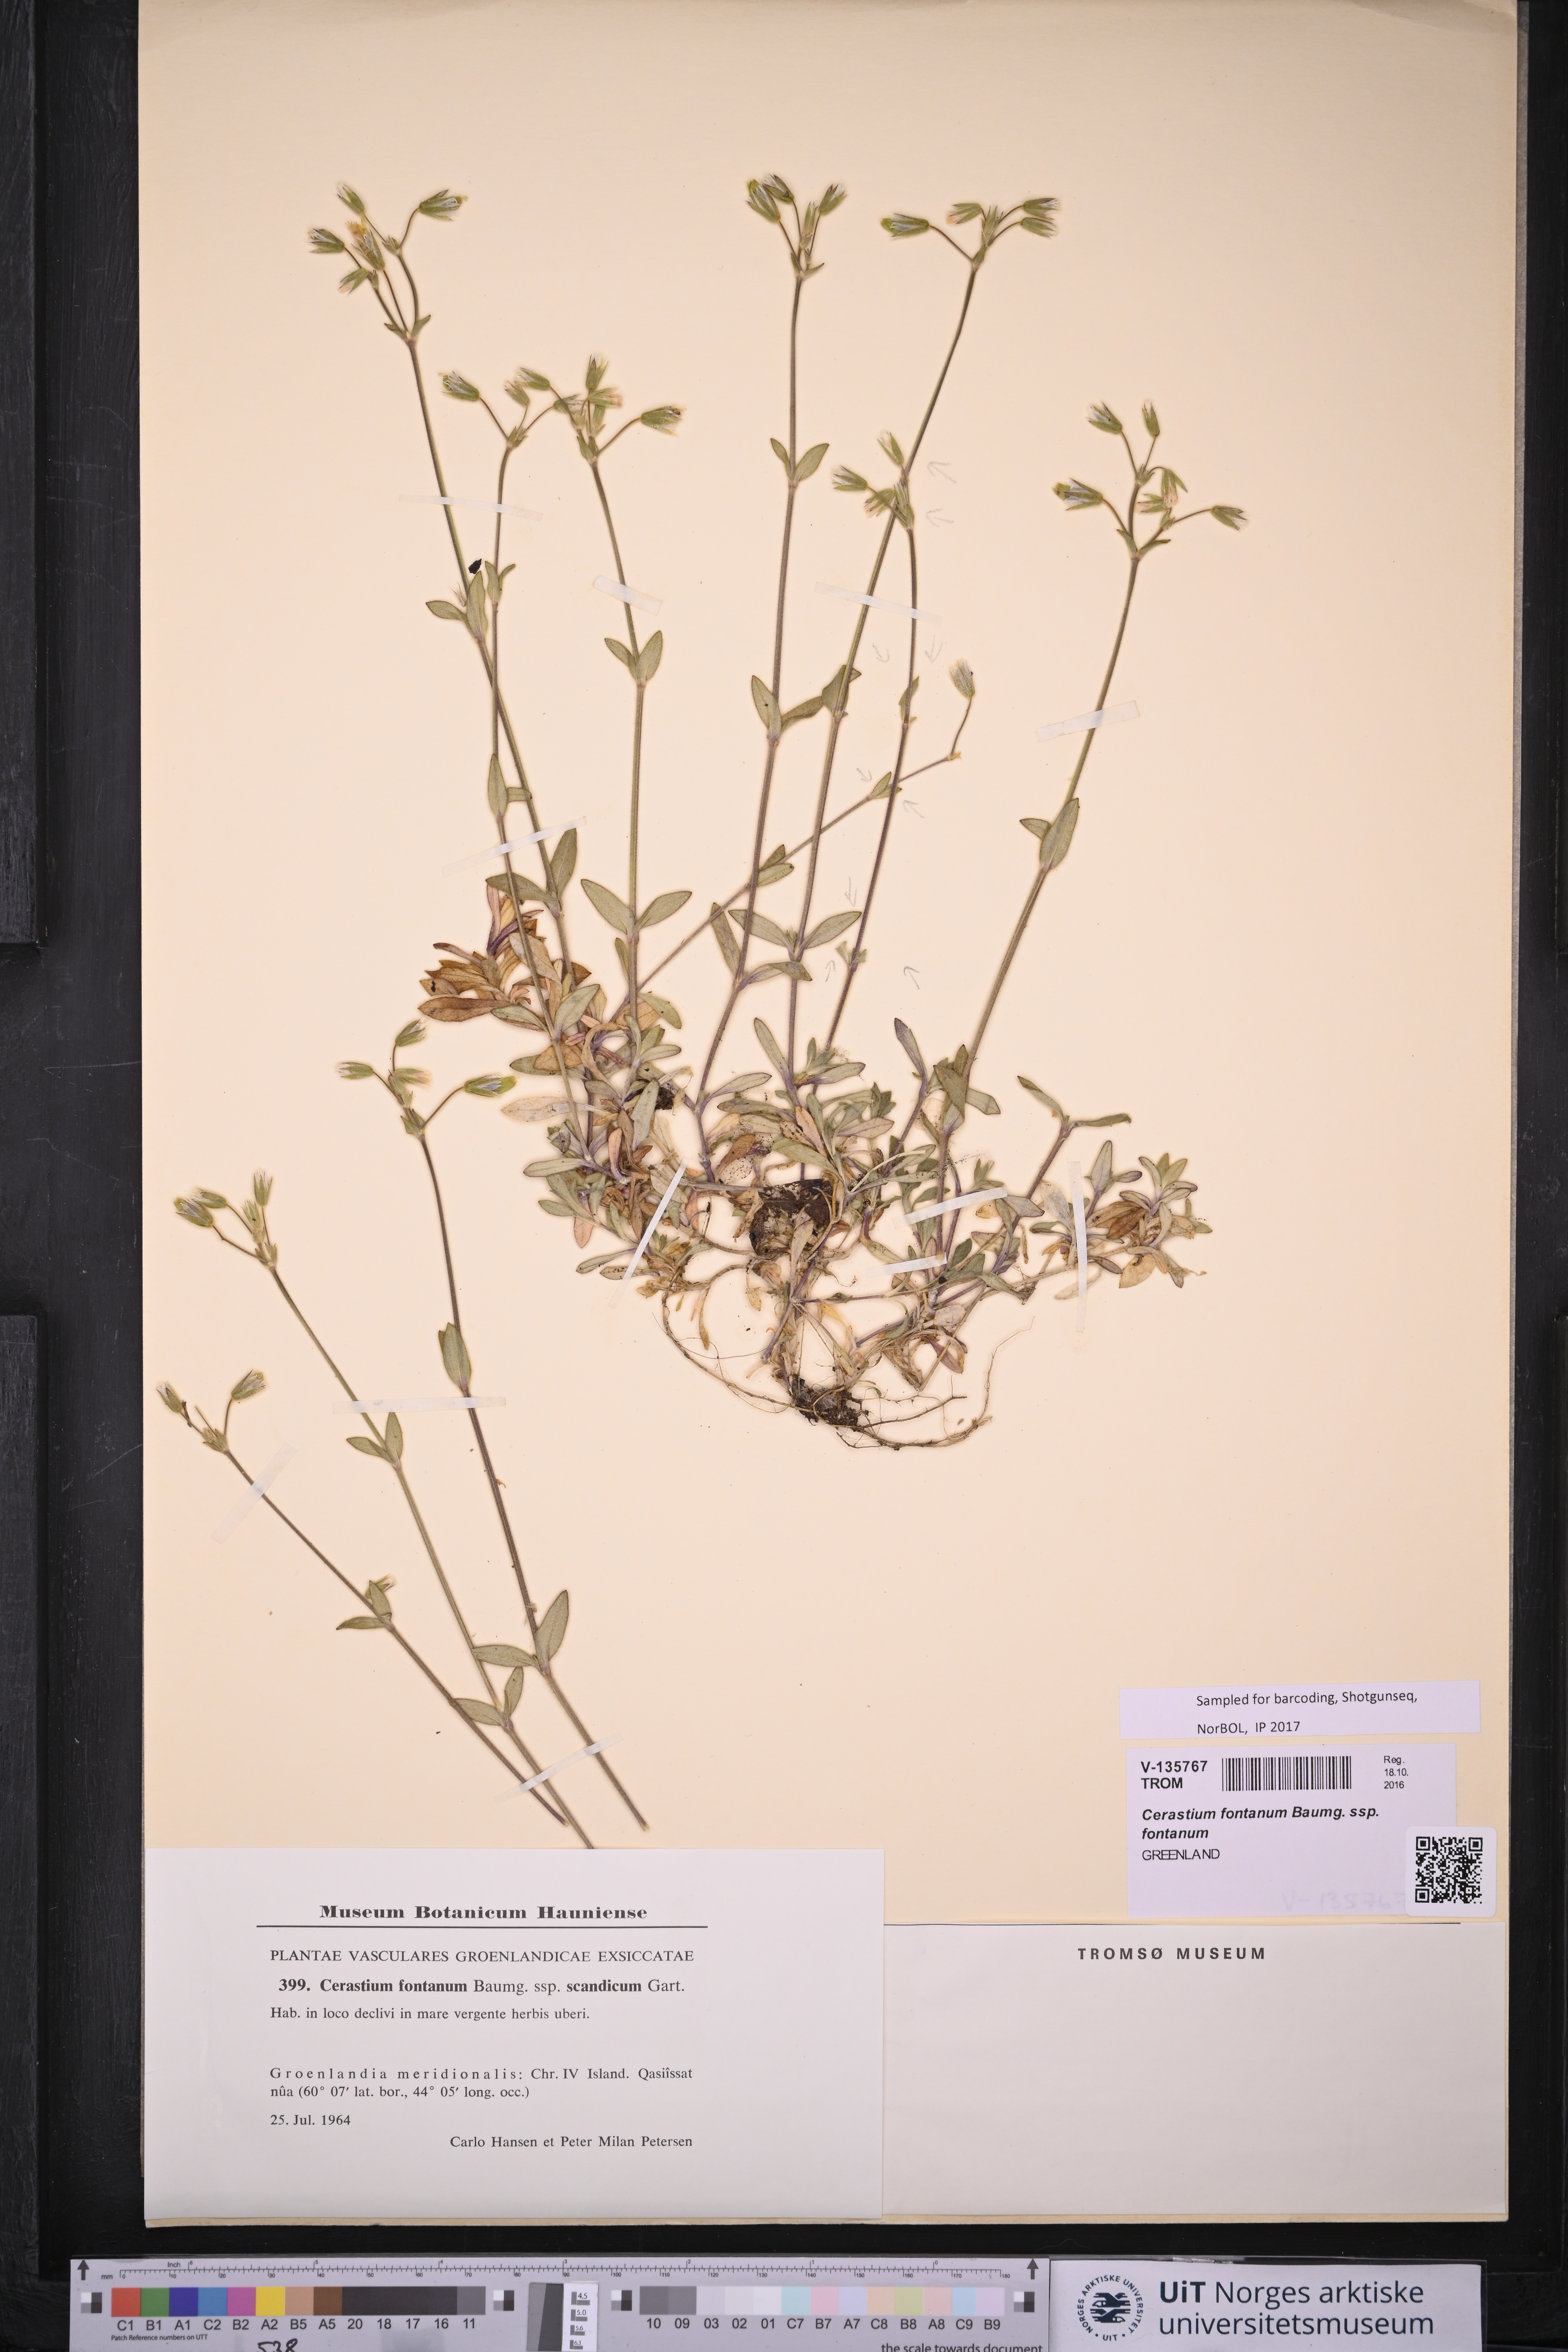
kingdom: Plantae
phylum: Tracheophyta
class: Magnoliopsida
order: Caryophyllales
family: Caryophyllaceae
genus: Cerastium
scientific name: Cerastium fontanum
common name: Common mouse-ear
